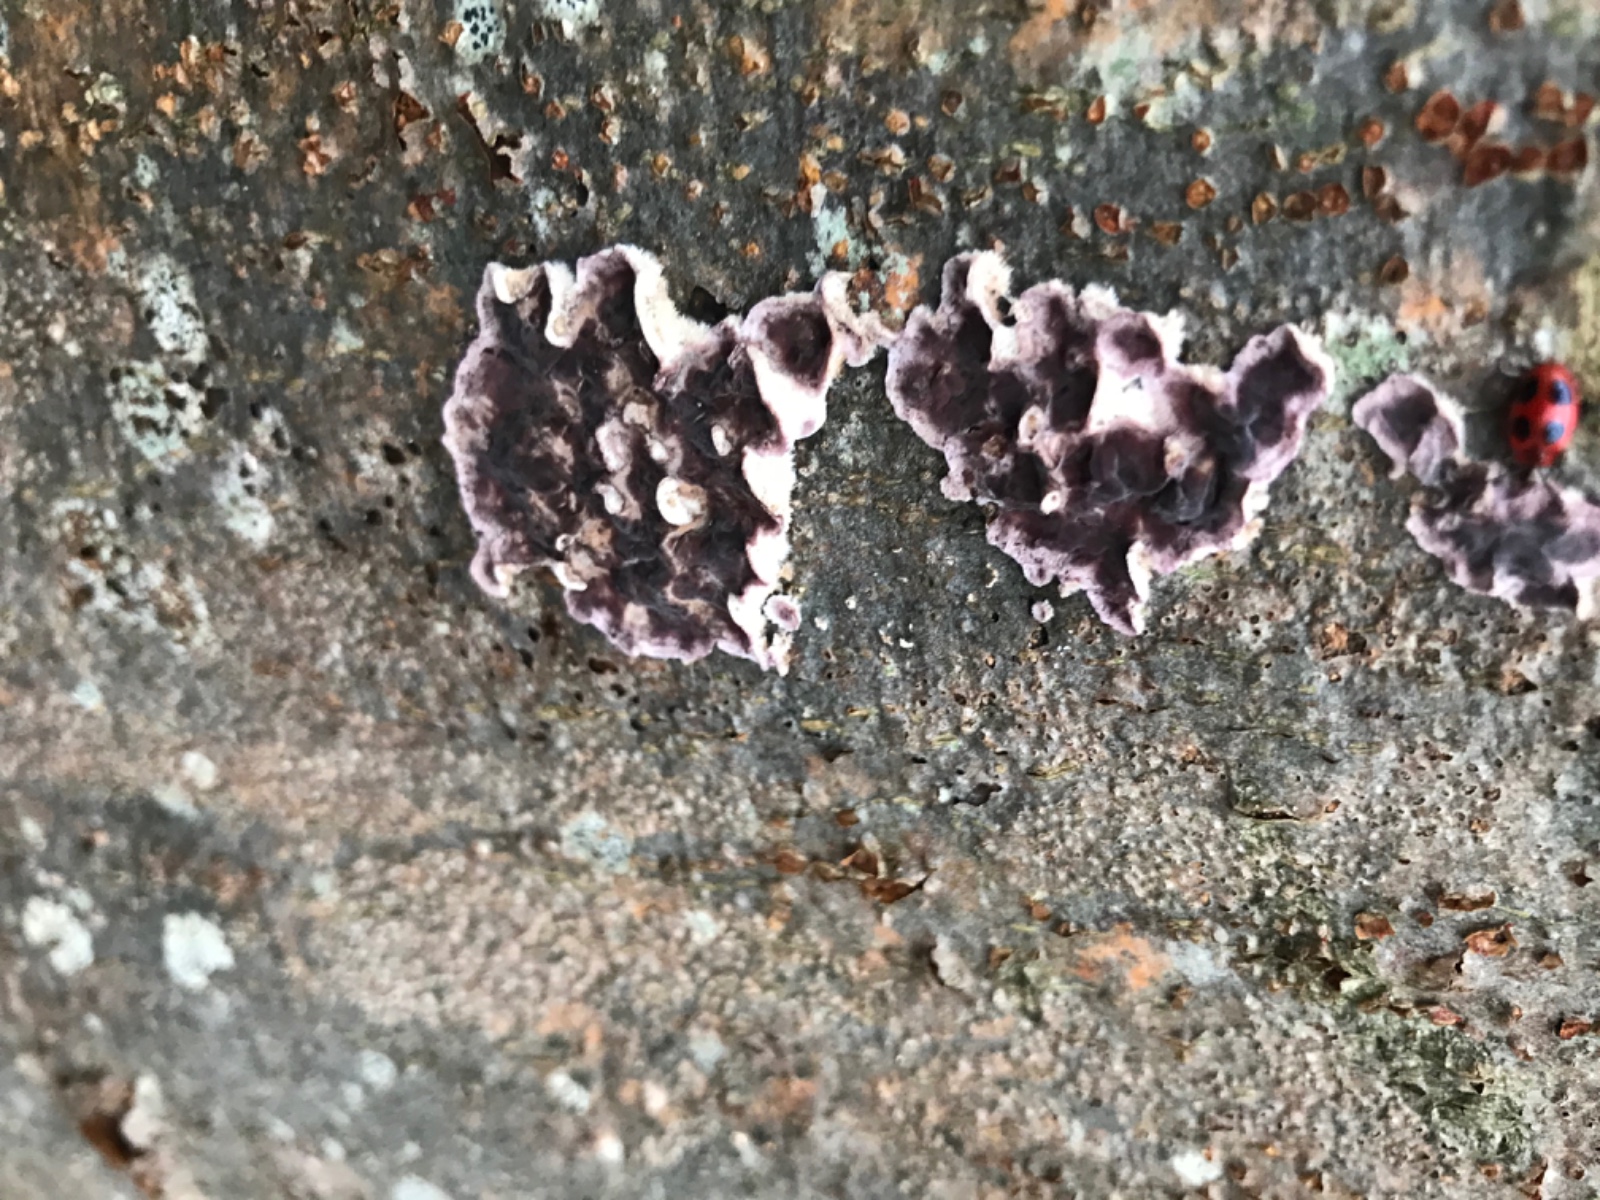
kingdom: Fungi
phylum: Basidiomycota
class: Agaricomycetes
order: Agaricales
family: Cyphellaceae
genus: Chondrostereum
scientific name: Chondrostereum purpureum
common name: purpurlædersvamp
